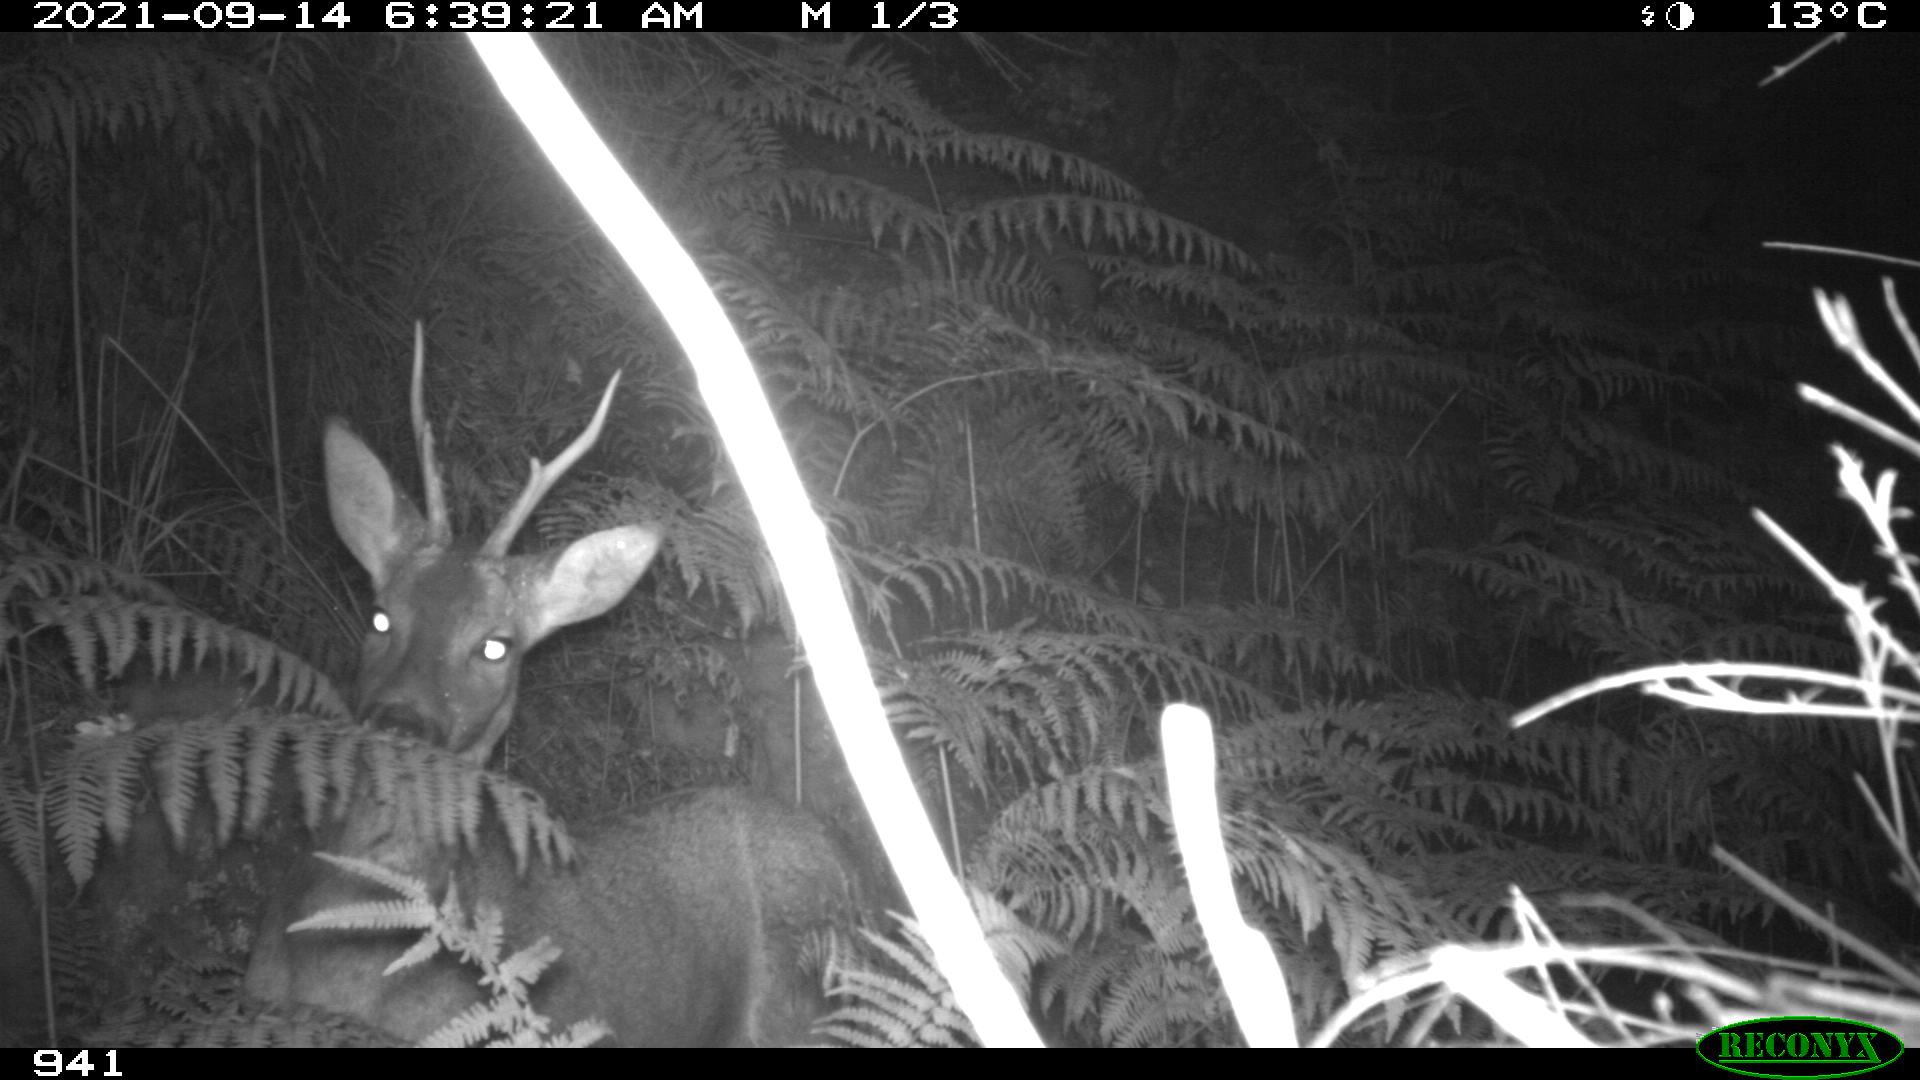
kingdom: Animalia
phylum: Chordata
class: Mammalia
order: Artiodactyla
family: Cervidae
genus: Capreolus
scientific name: Capreolus capreolus
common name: Western roe deer
